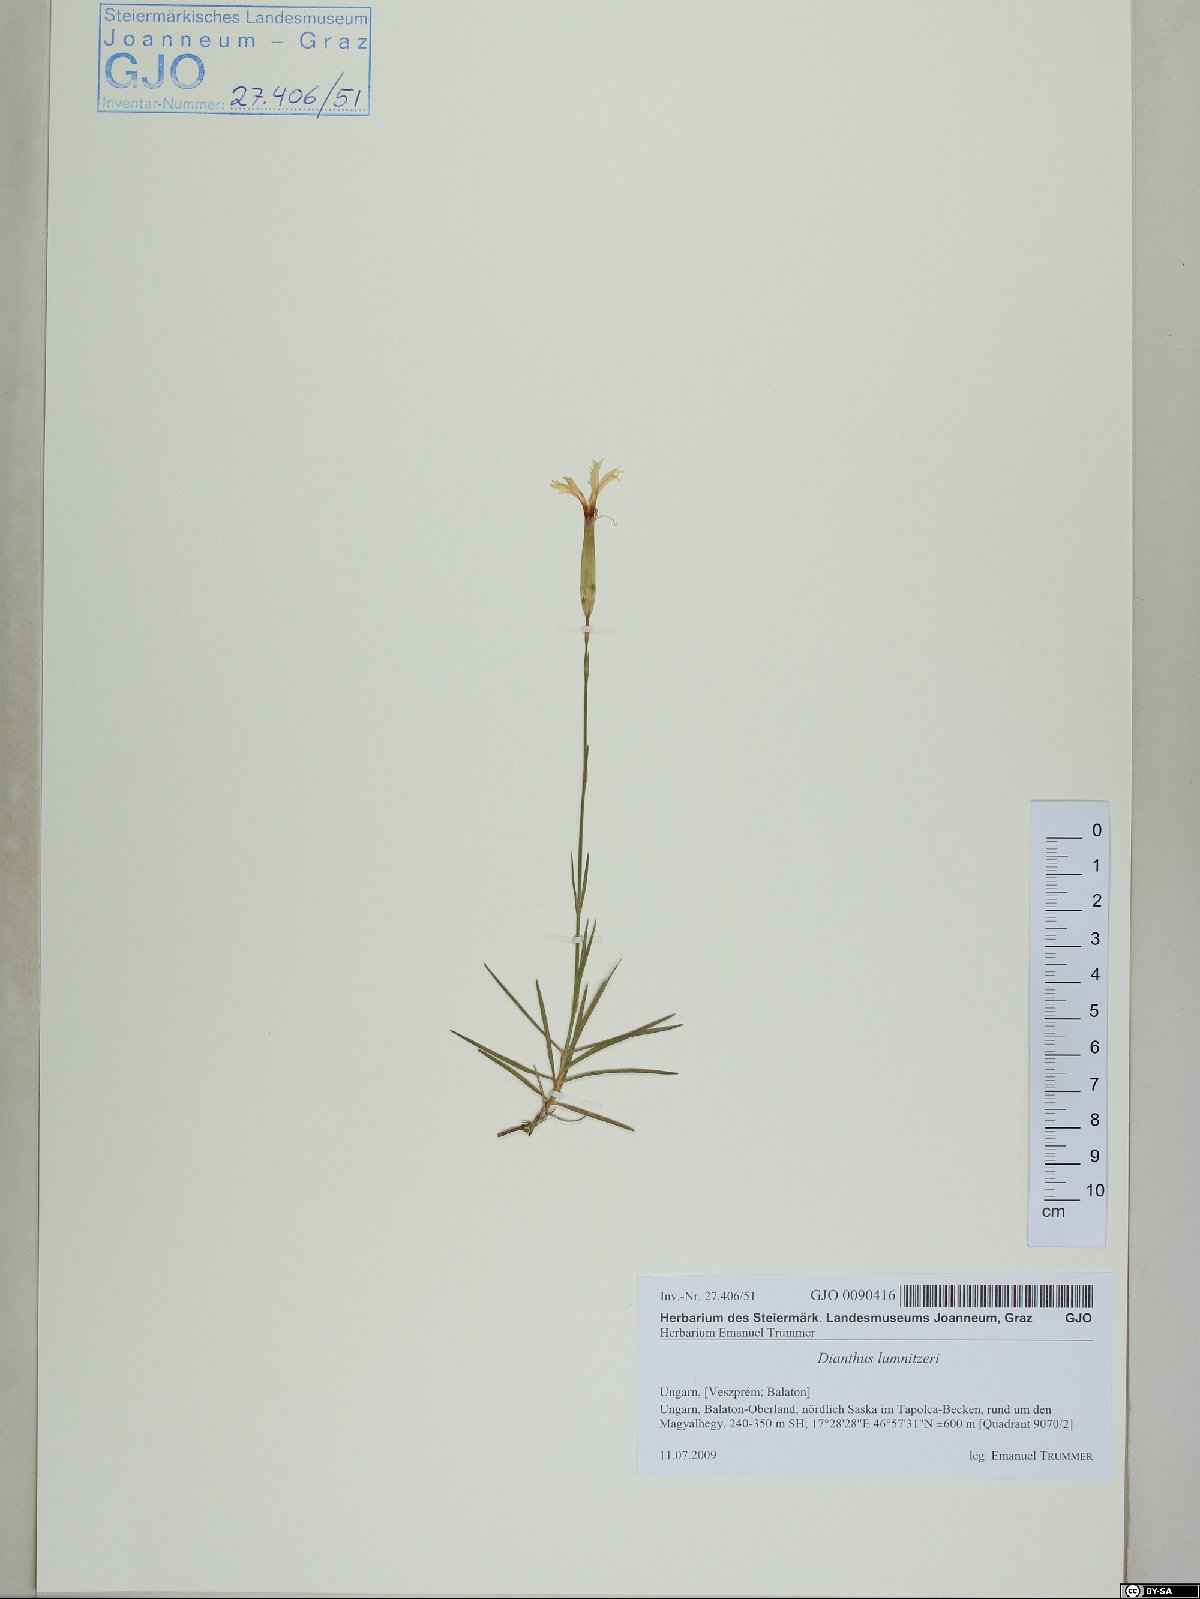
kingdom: Plantae
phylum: Tracheophyta
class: Magnoliopsida
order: Caryophyllales
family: Caryophyllaceae
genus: Dianthus
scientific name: Dianthus praecox
